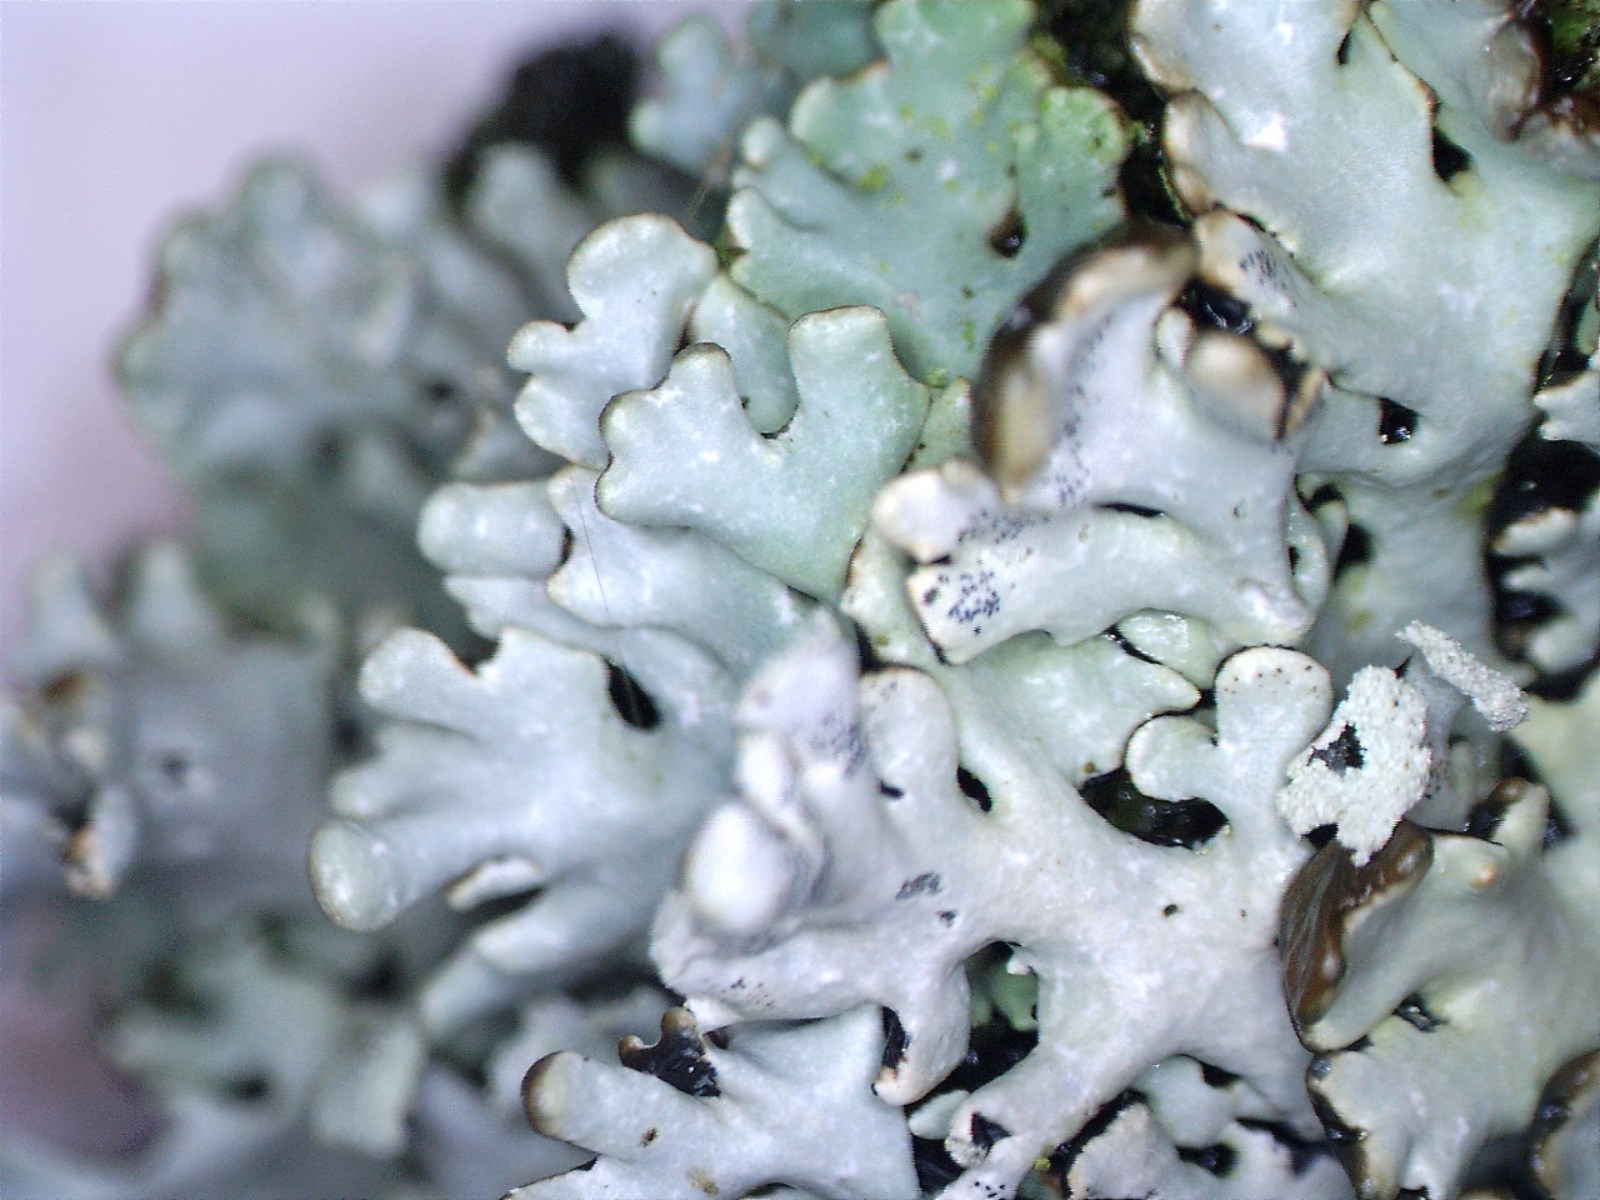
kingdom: Fungi
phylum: Ascomycota
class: Lecanoromycetes
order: Lecanorales
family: Parmeliaceae
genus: Hypogymnia
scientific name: Hypogymnia physodes
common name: almindelig kvistlav
